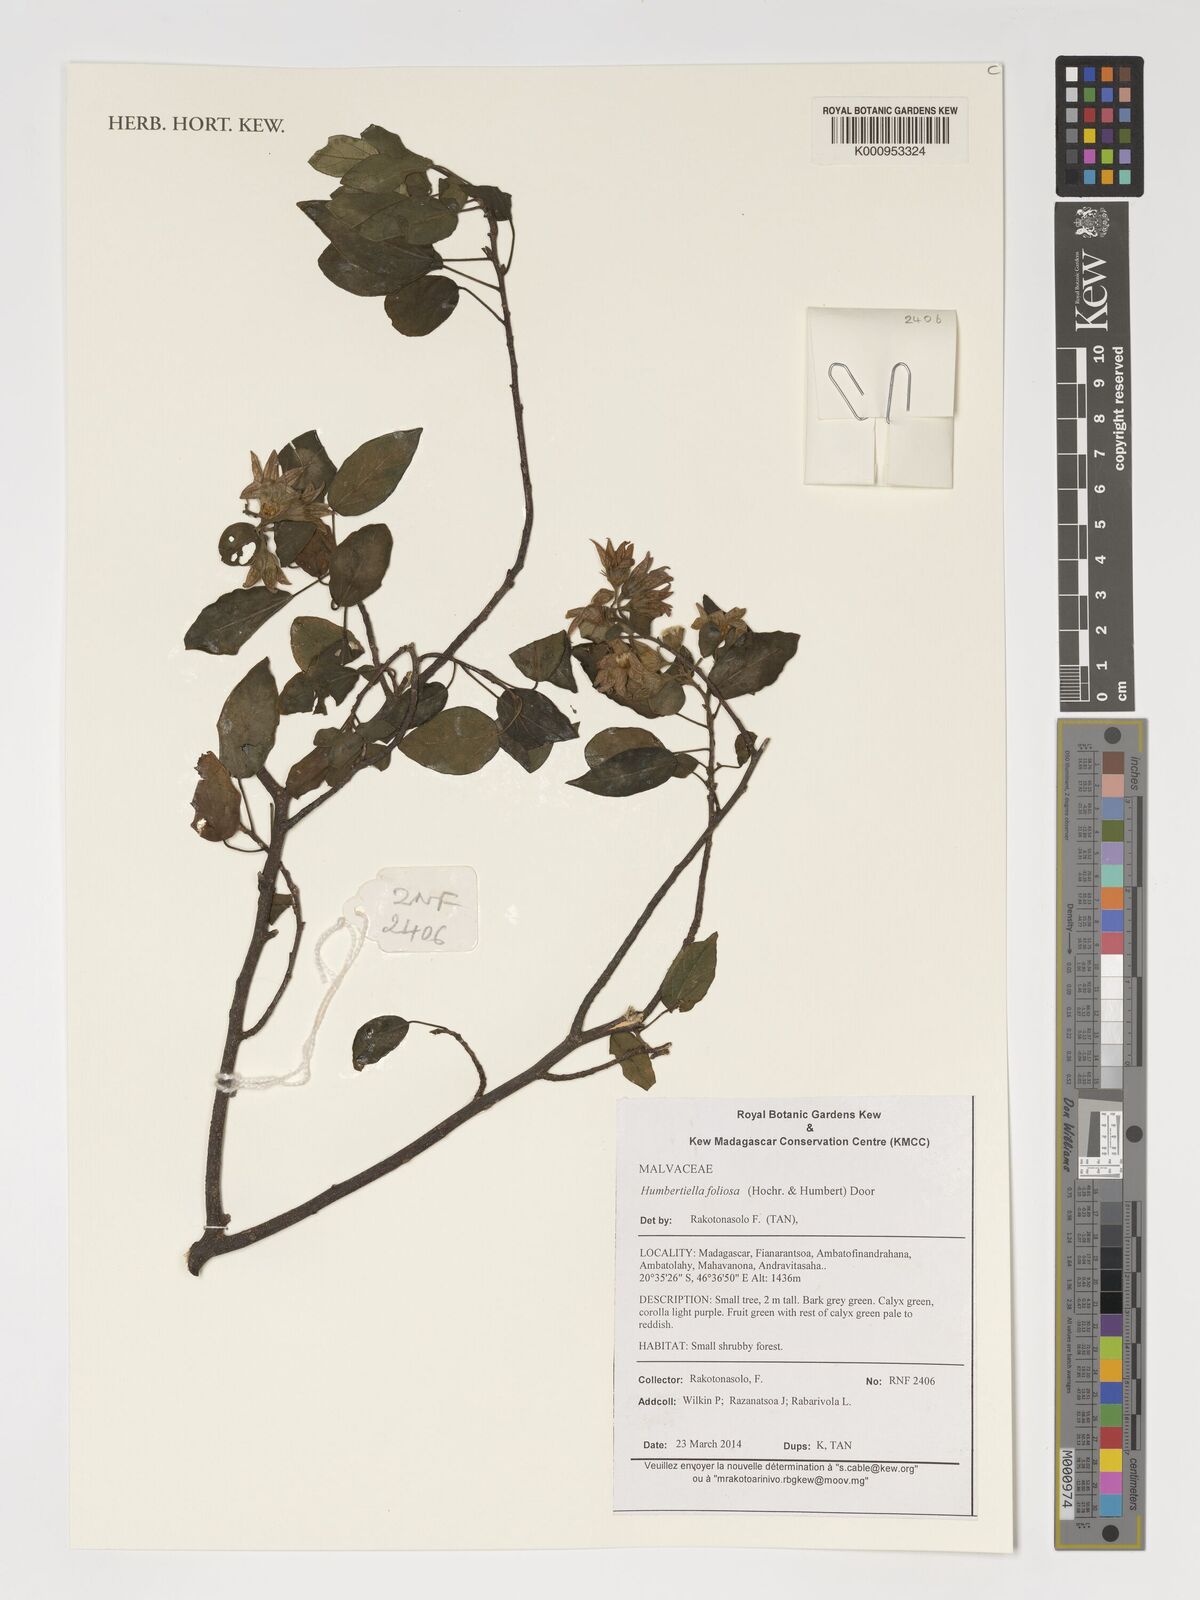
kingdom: Plantae
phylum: Tracheophyta
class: Magnoliopsida
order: Malvales
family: Malvaceae
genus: Humbertiella
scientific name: Humbertiella foliosa
